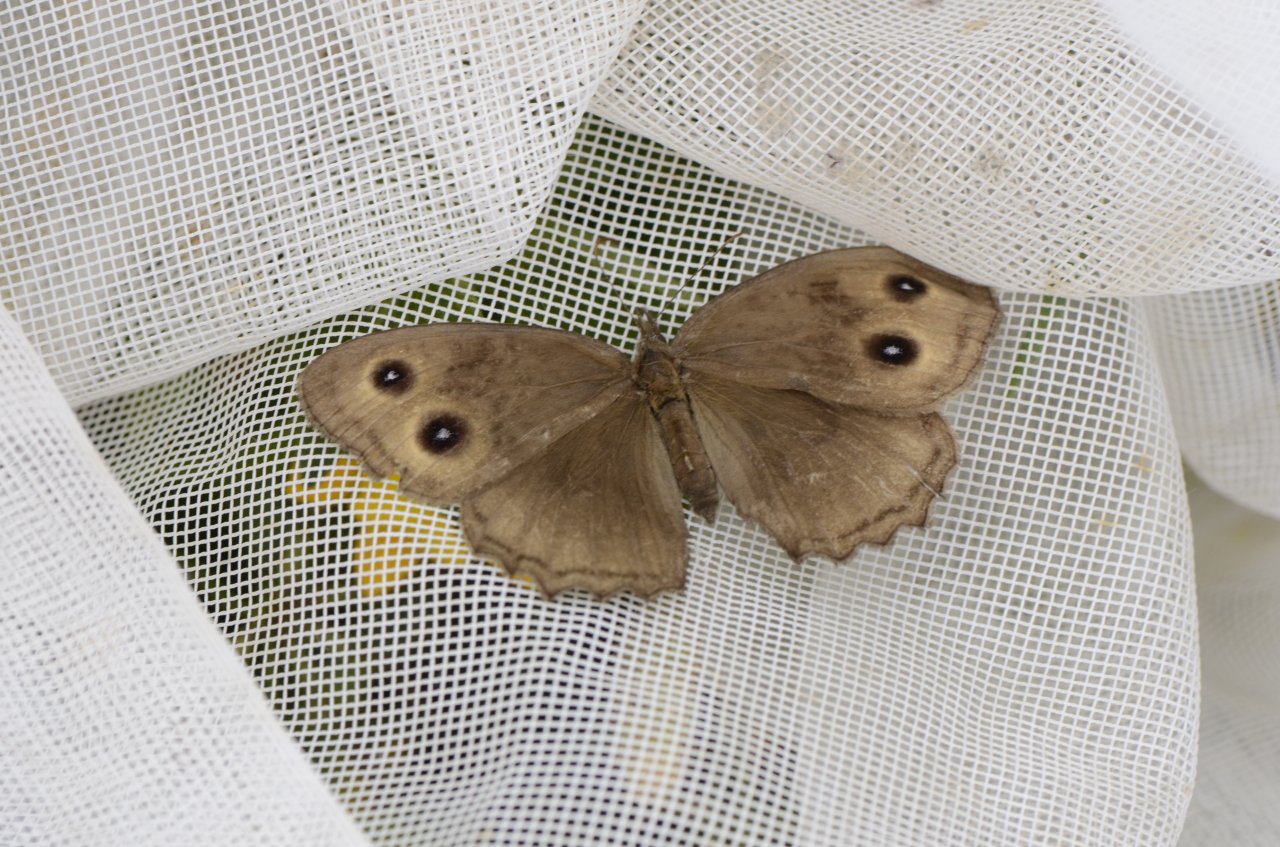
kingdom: Animalia
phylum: Arthropoda
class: Insecta
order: Lepidoptera
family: Nymphalidae
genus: Cercyonis
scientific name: Cercyonis pegala
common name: Common Wood-Nymph
